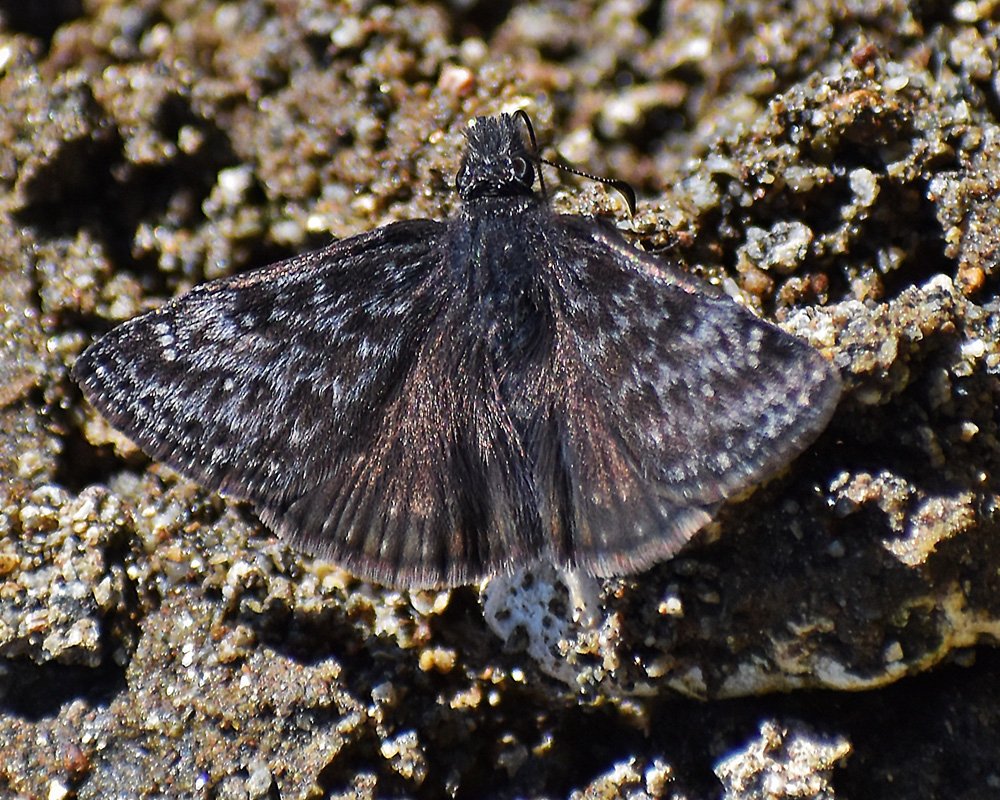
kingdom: Animalia
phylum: Arthropoda
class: Insecta
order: Lepidoptera
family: Hesperiidae
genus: Gesta
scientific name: Gesta
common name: Persius Duskywing
